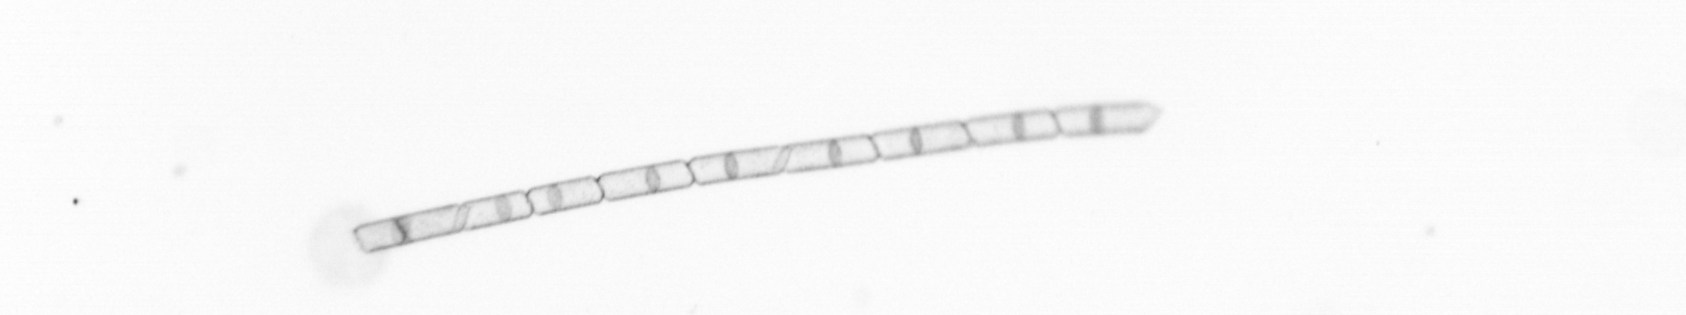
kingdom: Chromista
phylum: Ochrophyta
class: Bacillariophyceae
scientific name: Bacillariophyceae
